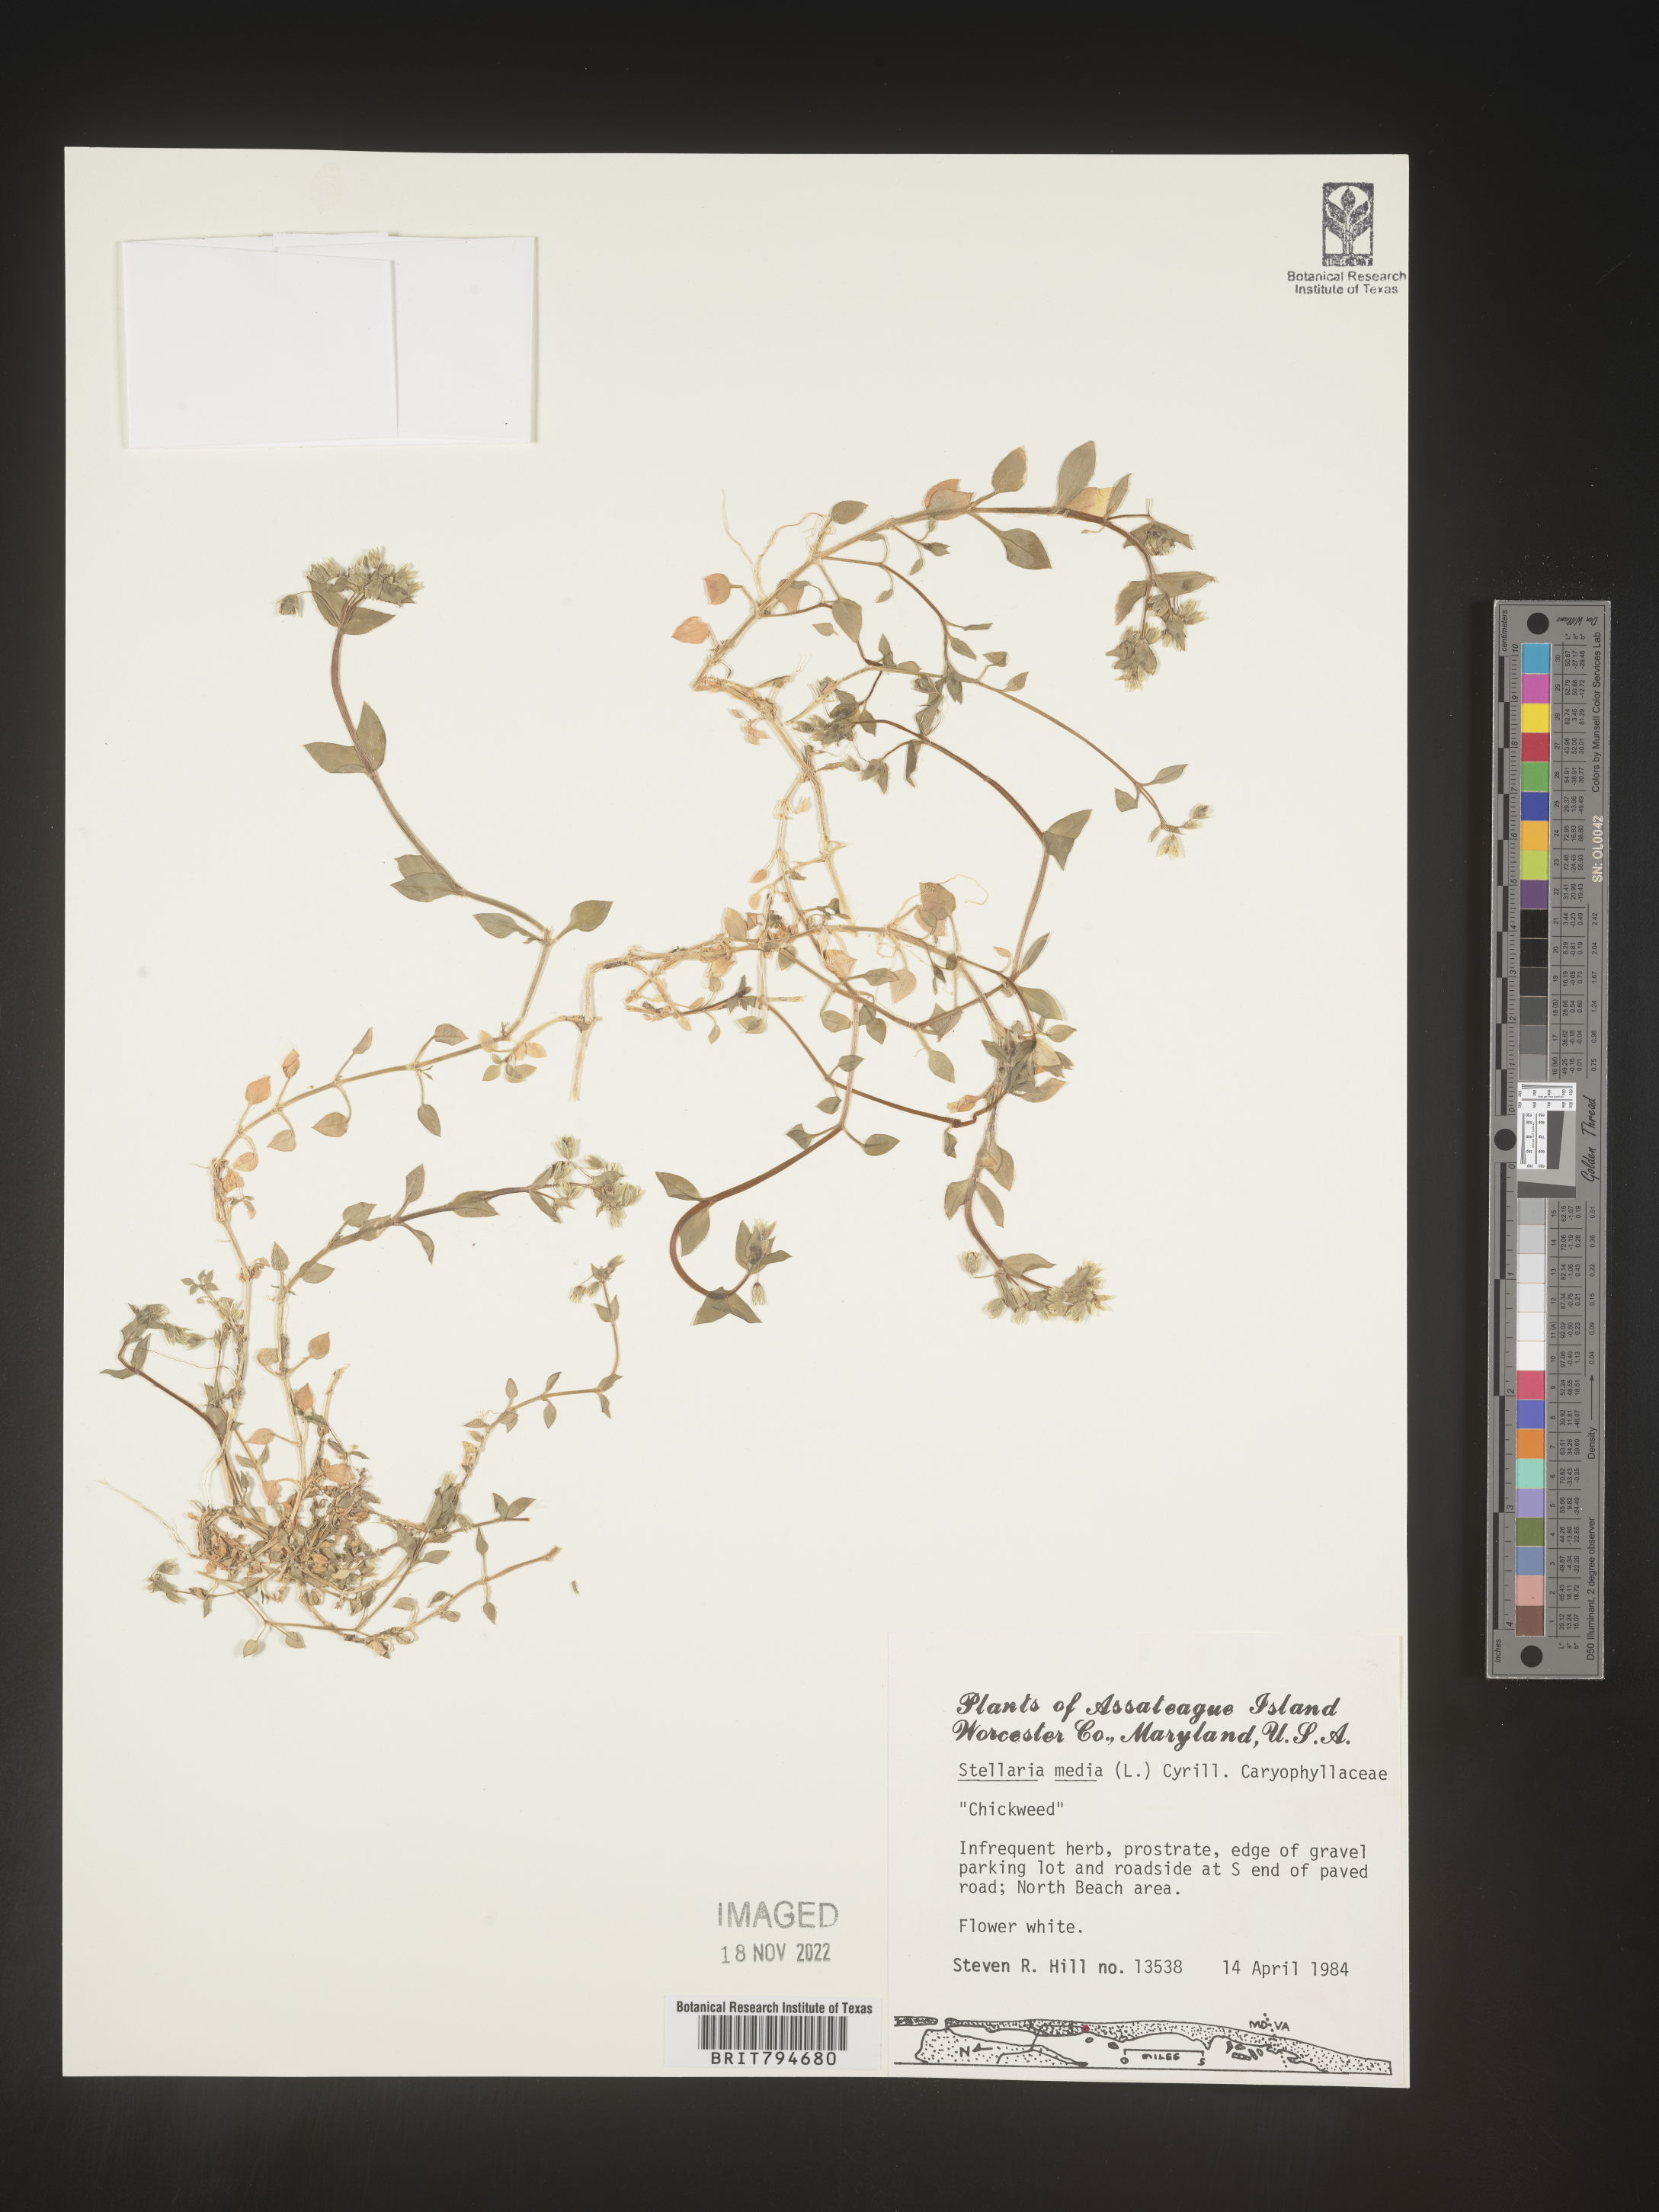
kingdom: Plantae
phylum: Tracheophyta
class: Magnoliopsida
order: Caryophyllales
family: Caryophyllaceae
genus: Stellaria
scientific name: Stellaria media
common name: Common chickweed
